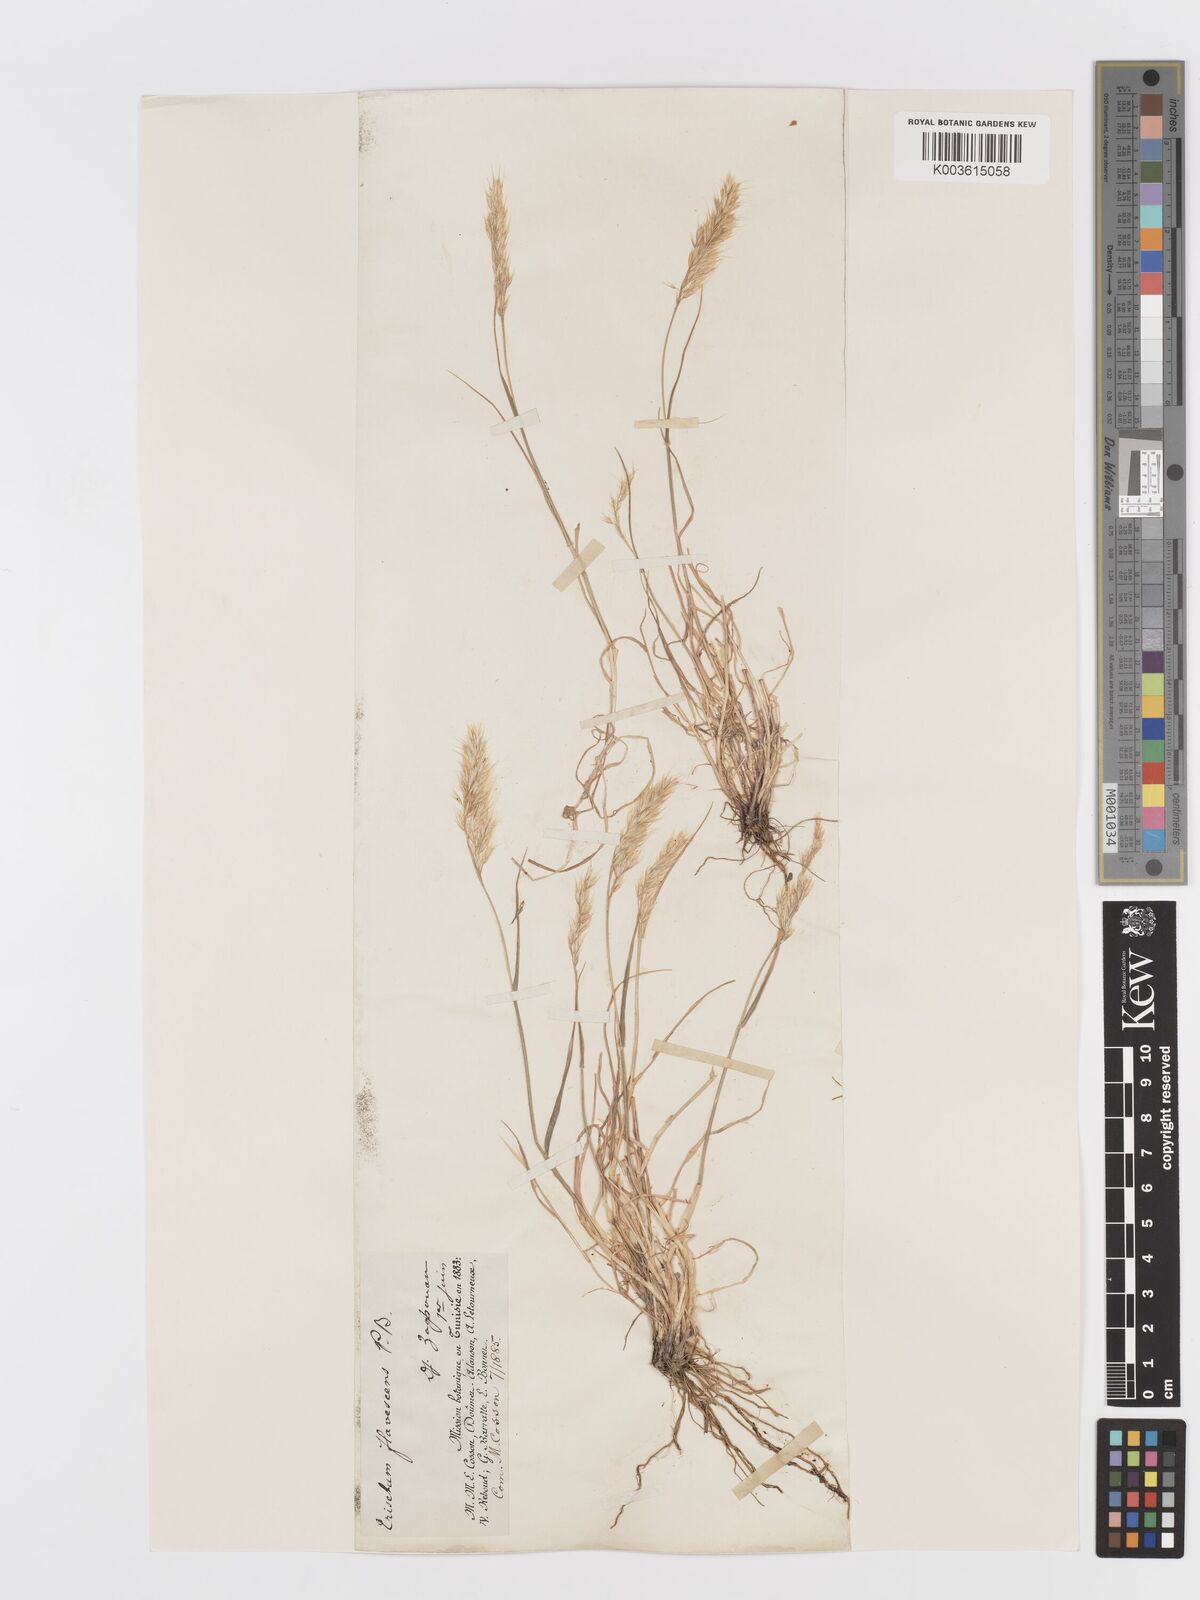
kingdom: Plantae
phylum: Tracheophyta
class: Liliopsida
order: Poales
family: Poaceae
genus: Trisetum
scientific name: Trisetum flavescens
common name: Yellow oat-grass
